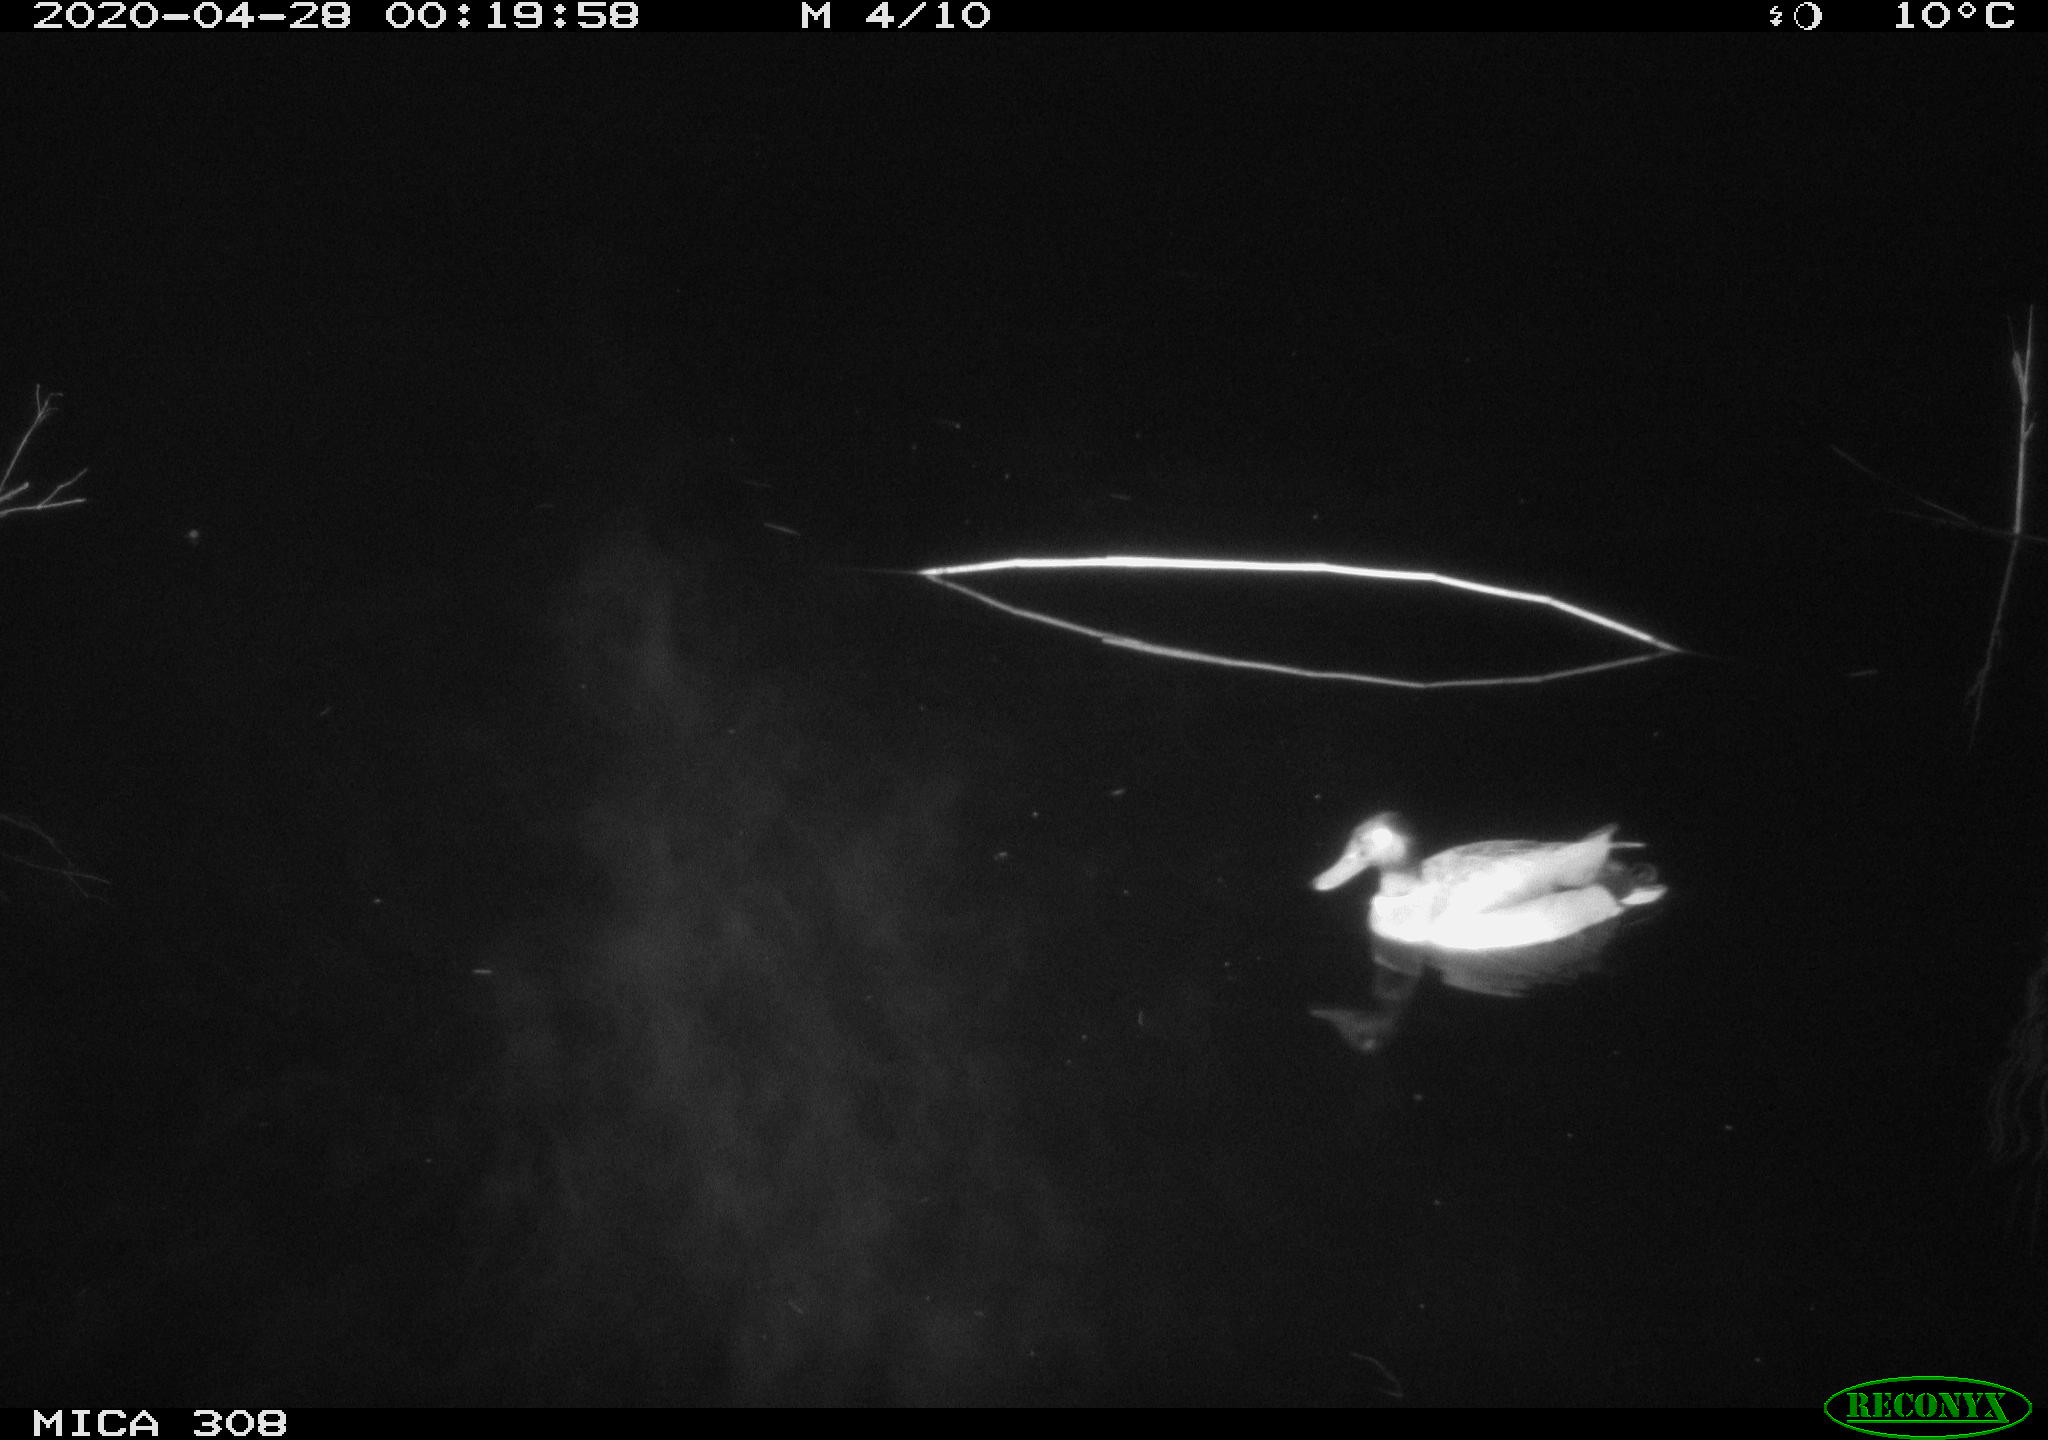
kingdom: Animalia
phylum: Chordata
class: Aves
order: Anseriformes
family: Anatidae
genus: Anas
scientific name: Anas platyrhynchos
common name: Mallard
